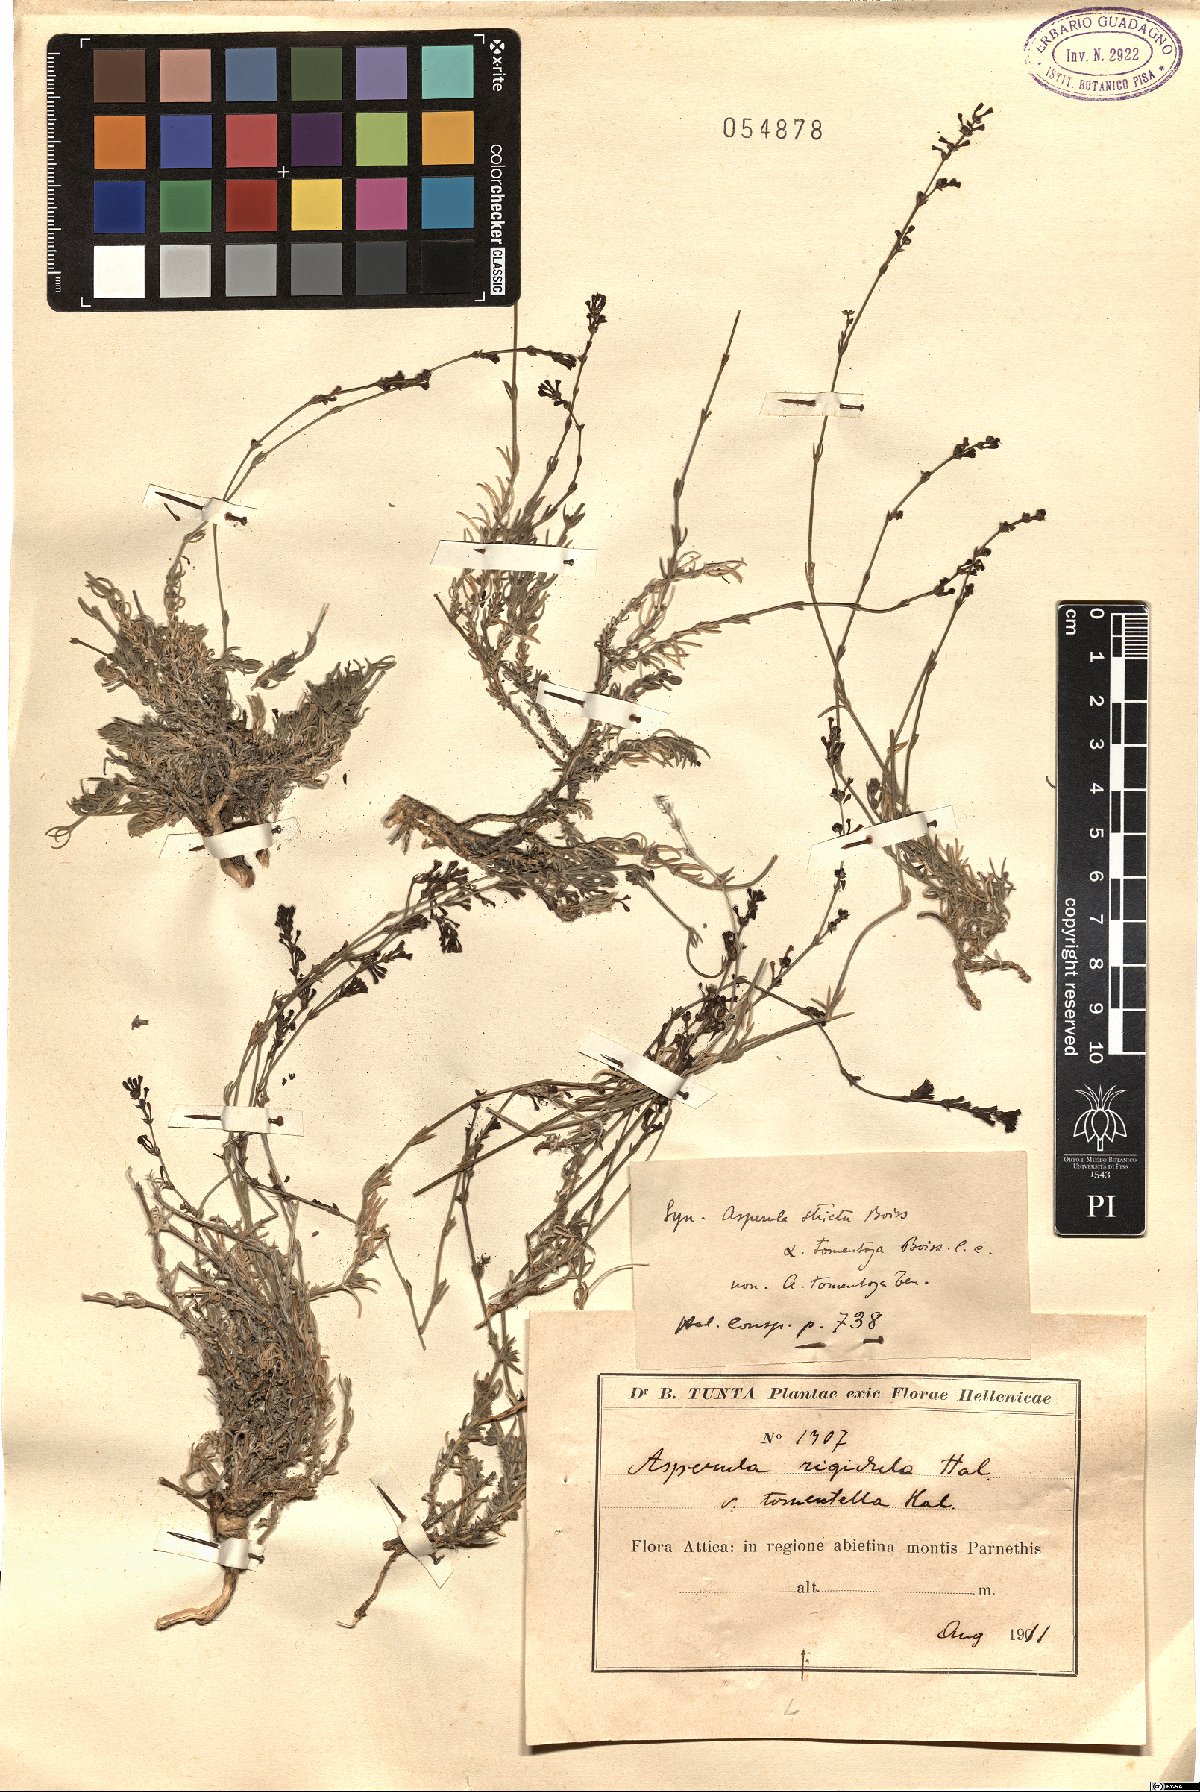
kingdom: Plantae
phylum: Tracheophyta
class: Magnoliopsida
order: Gentianales
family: Rubiaceae
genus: Cynanchica
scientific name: Cynanchica rigidula
